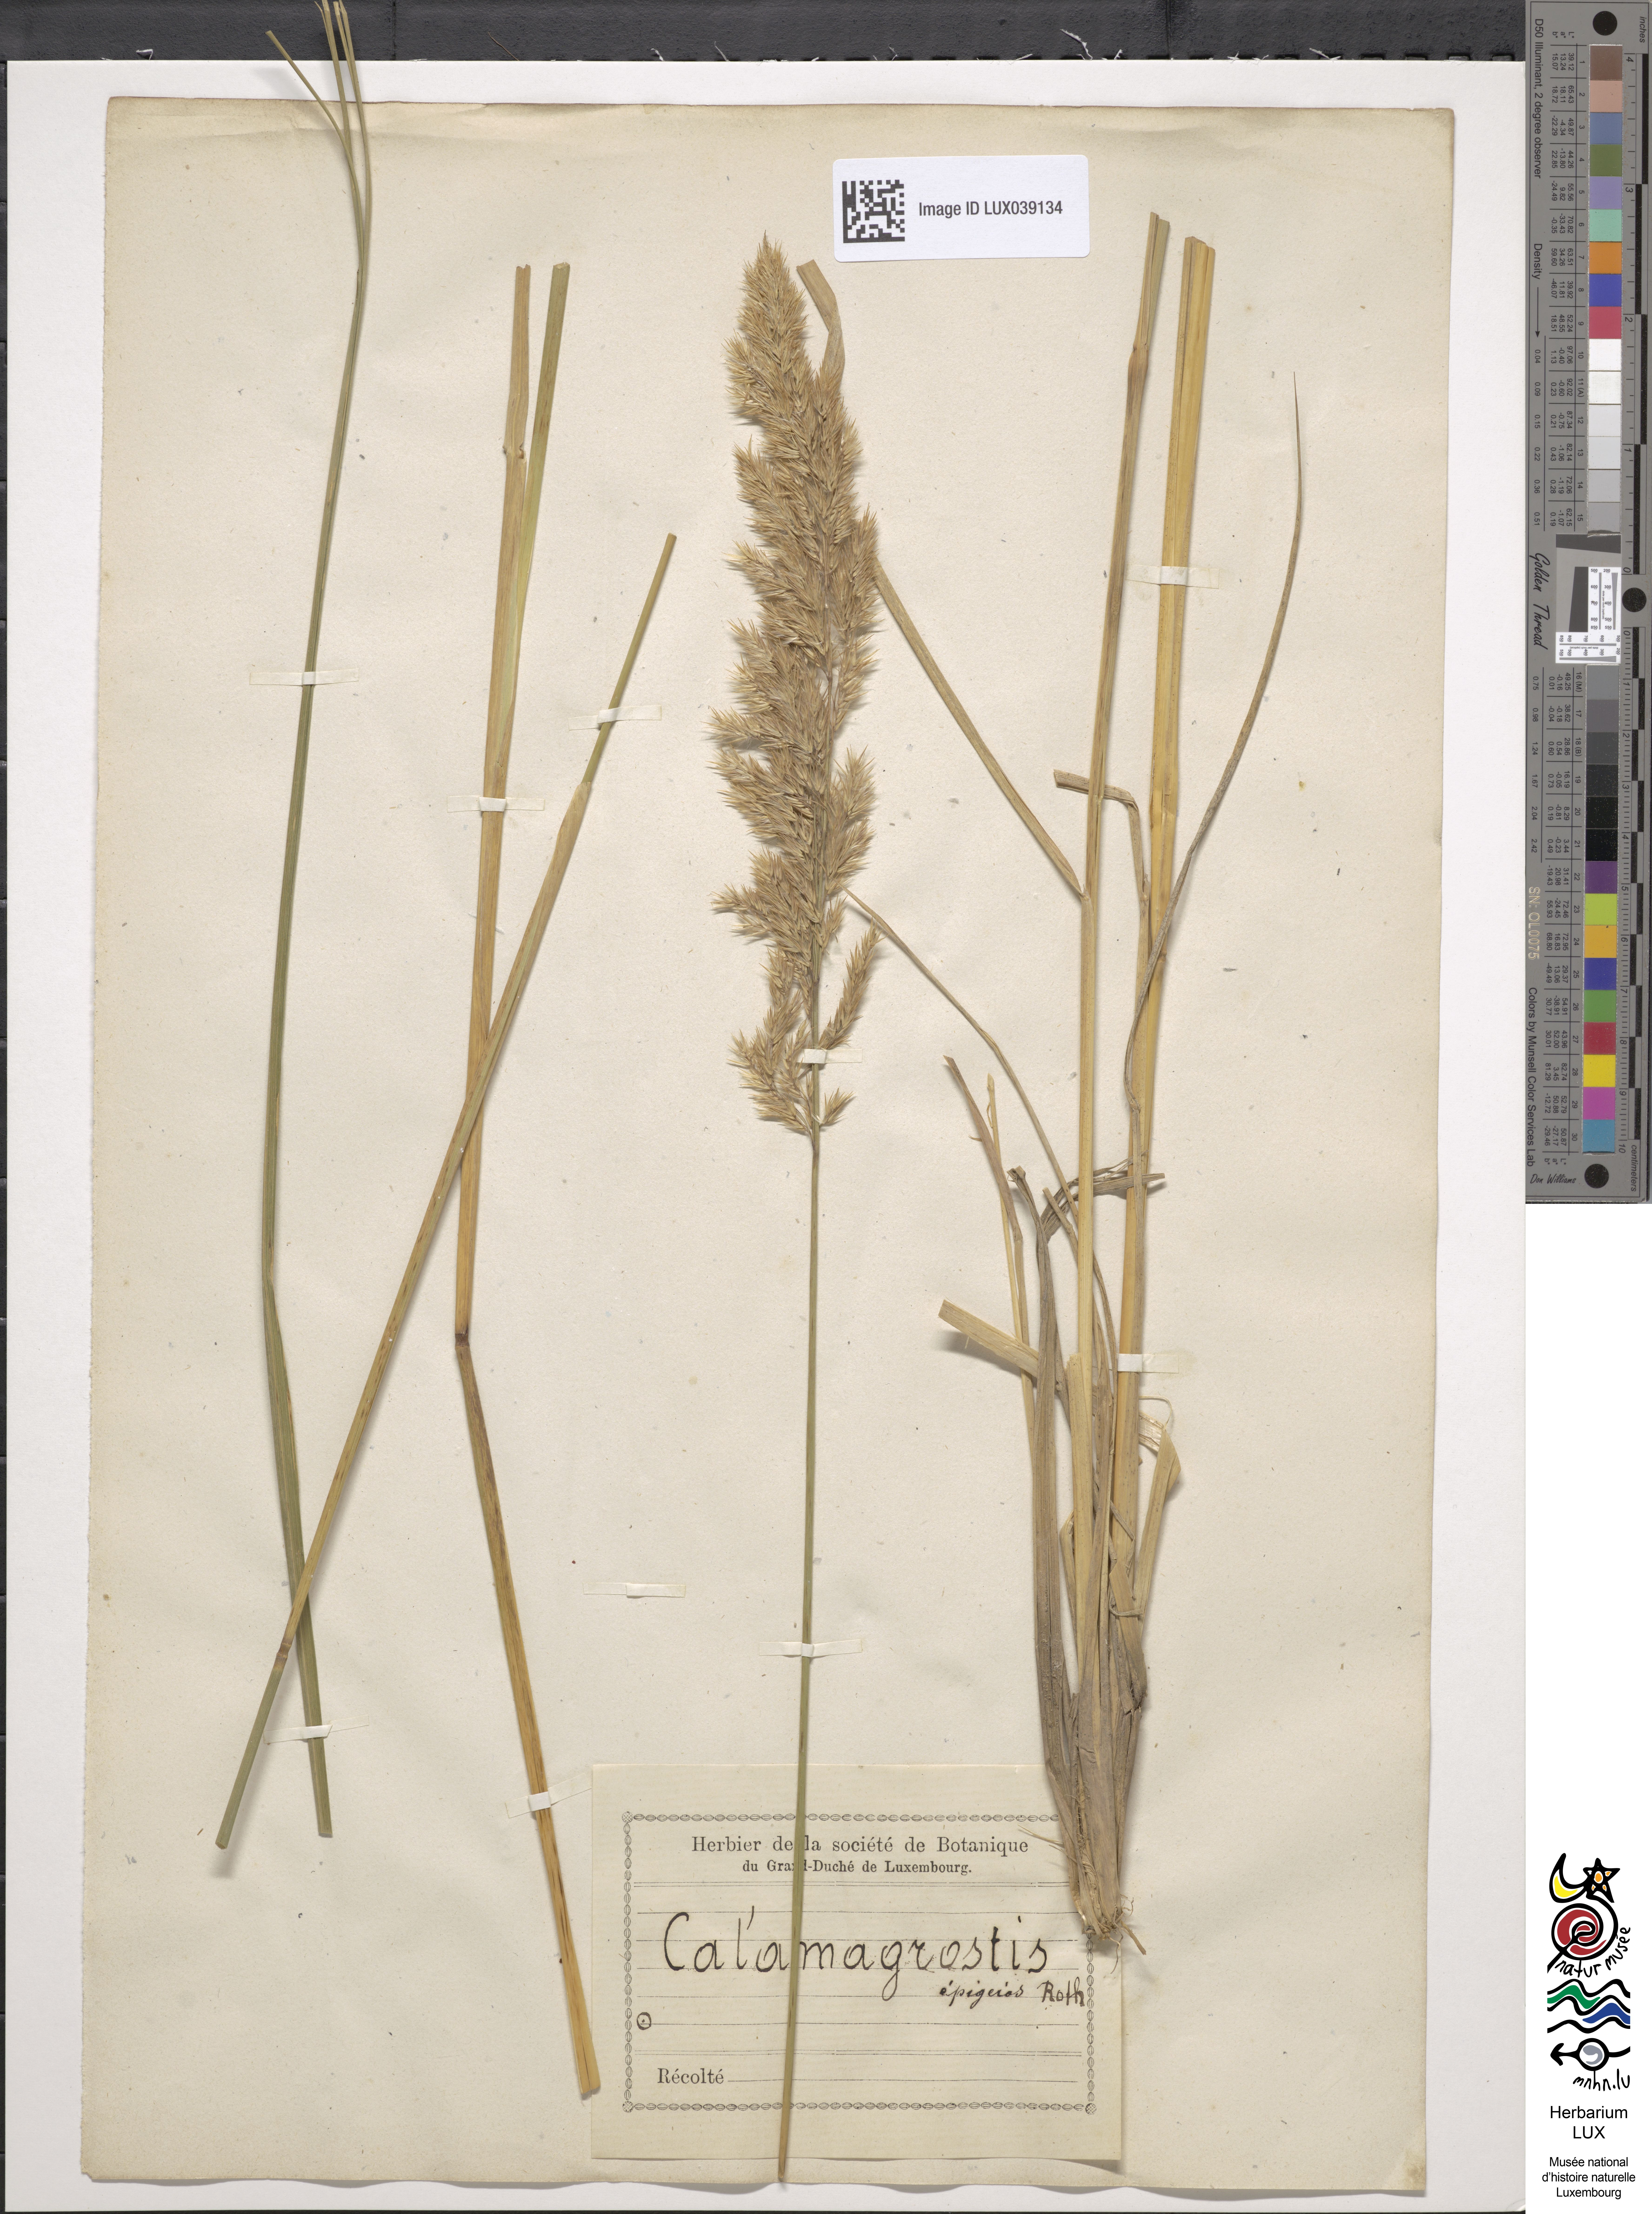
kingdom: Plantae
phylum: Tracheophyta
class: Liliopsida
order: Poales
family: Poaceae
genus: Calamagrostis
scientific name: Calamagrostis epigejos
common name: Wood small-reed
